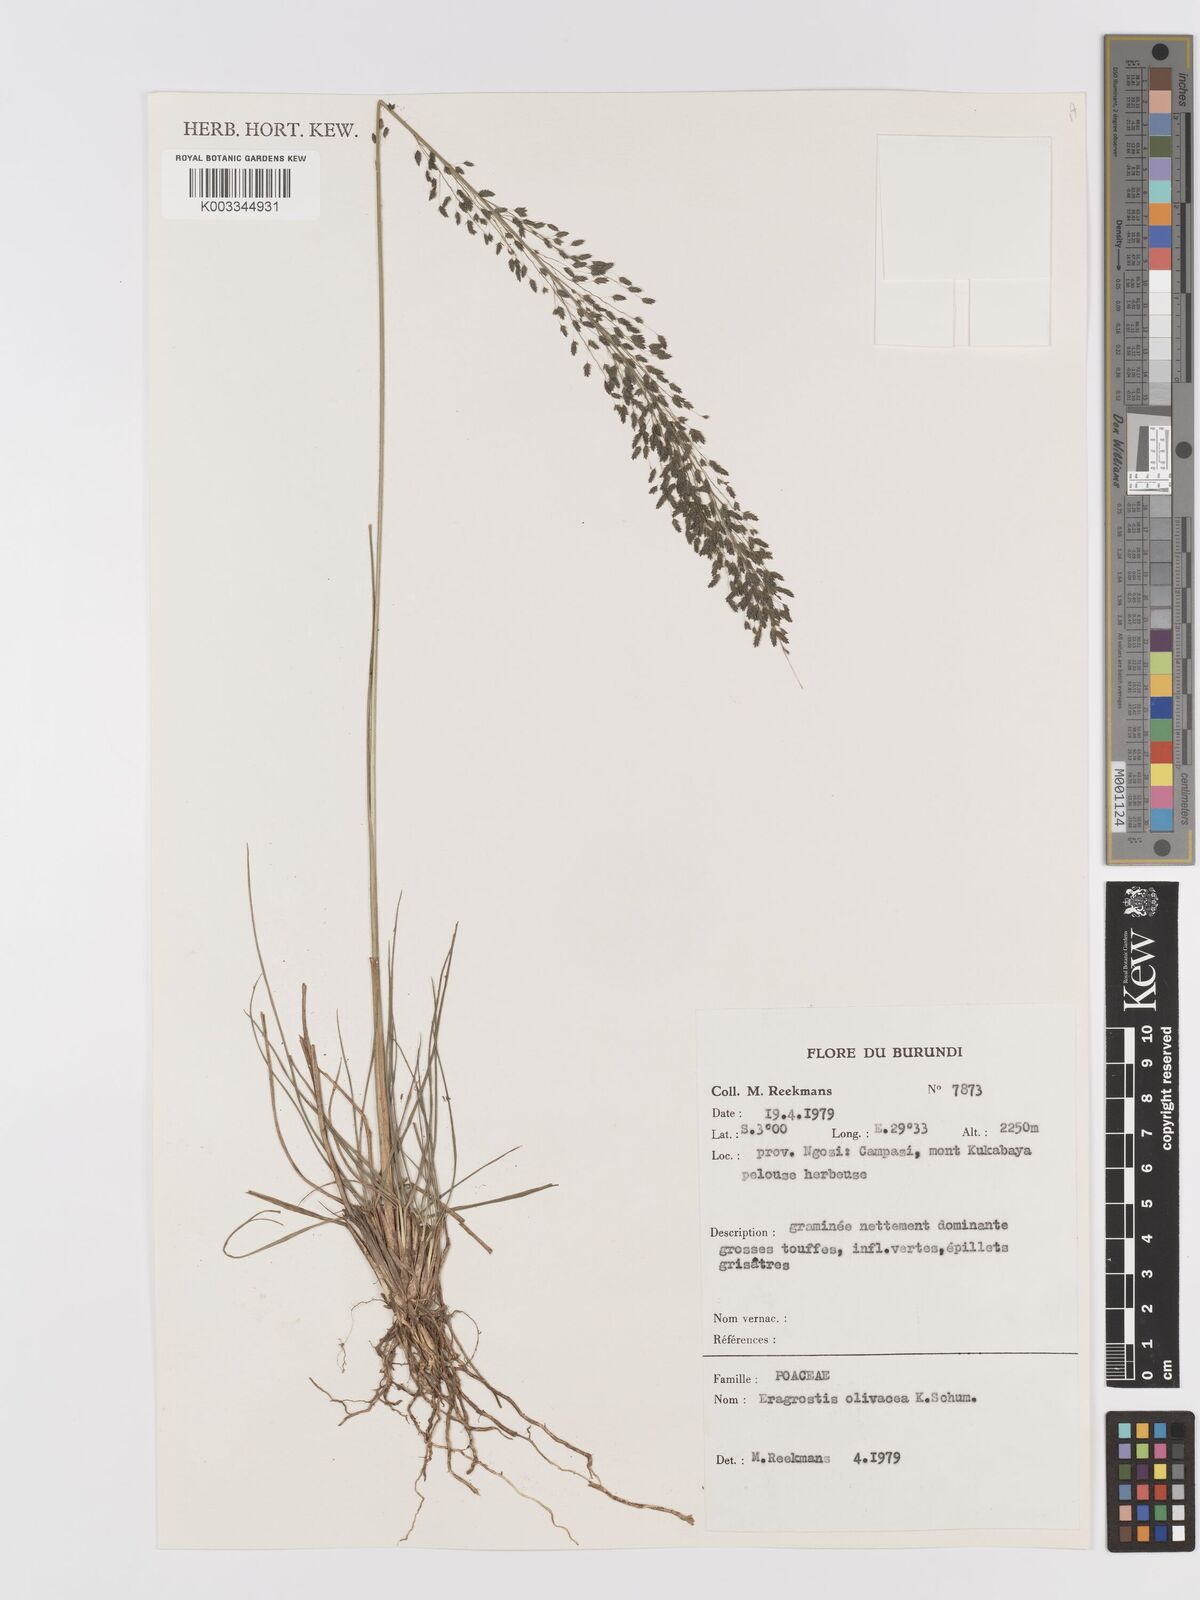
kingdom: Plantae
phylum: Tracheophyta
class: Liliopsida
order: Poales
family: Poaceae
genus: Eragrostis
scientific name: Eragrostis olivacea
